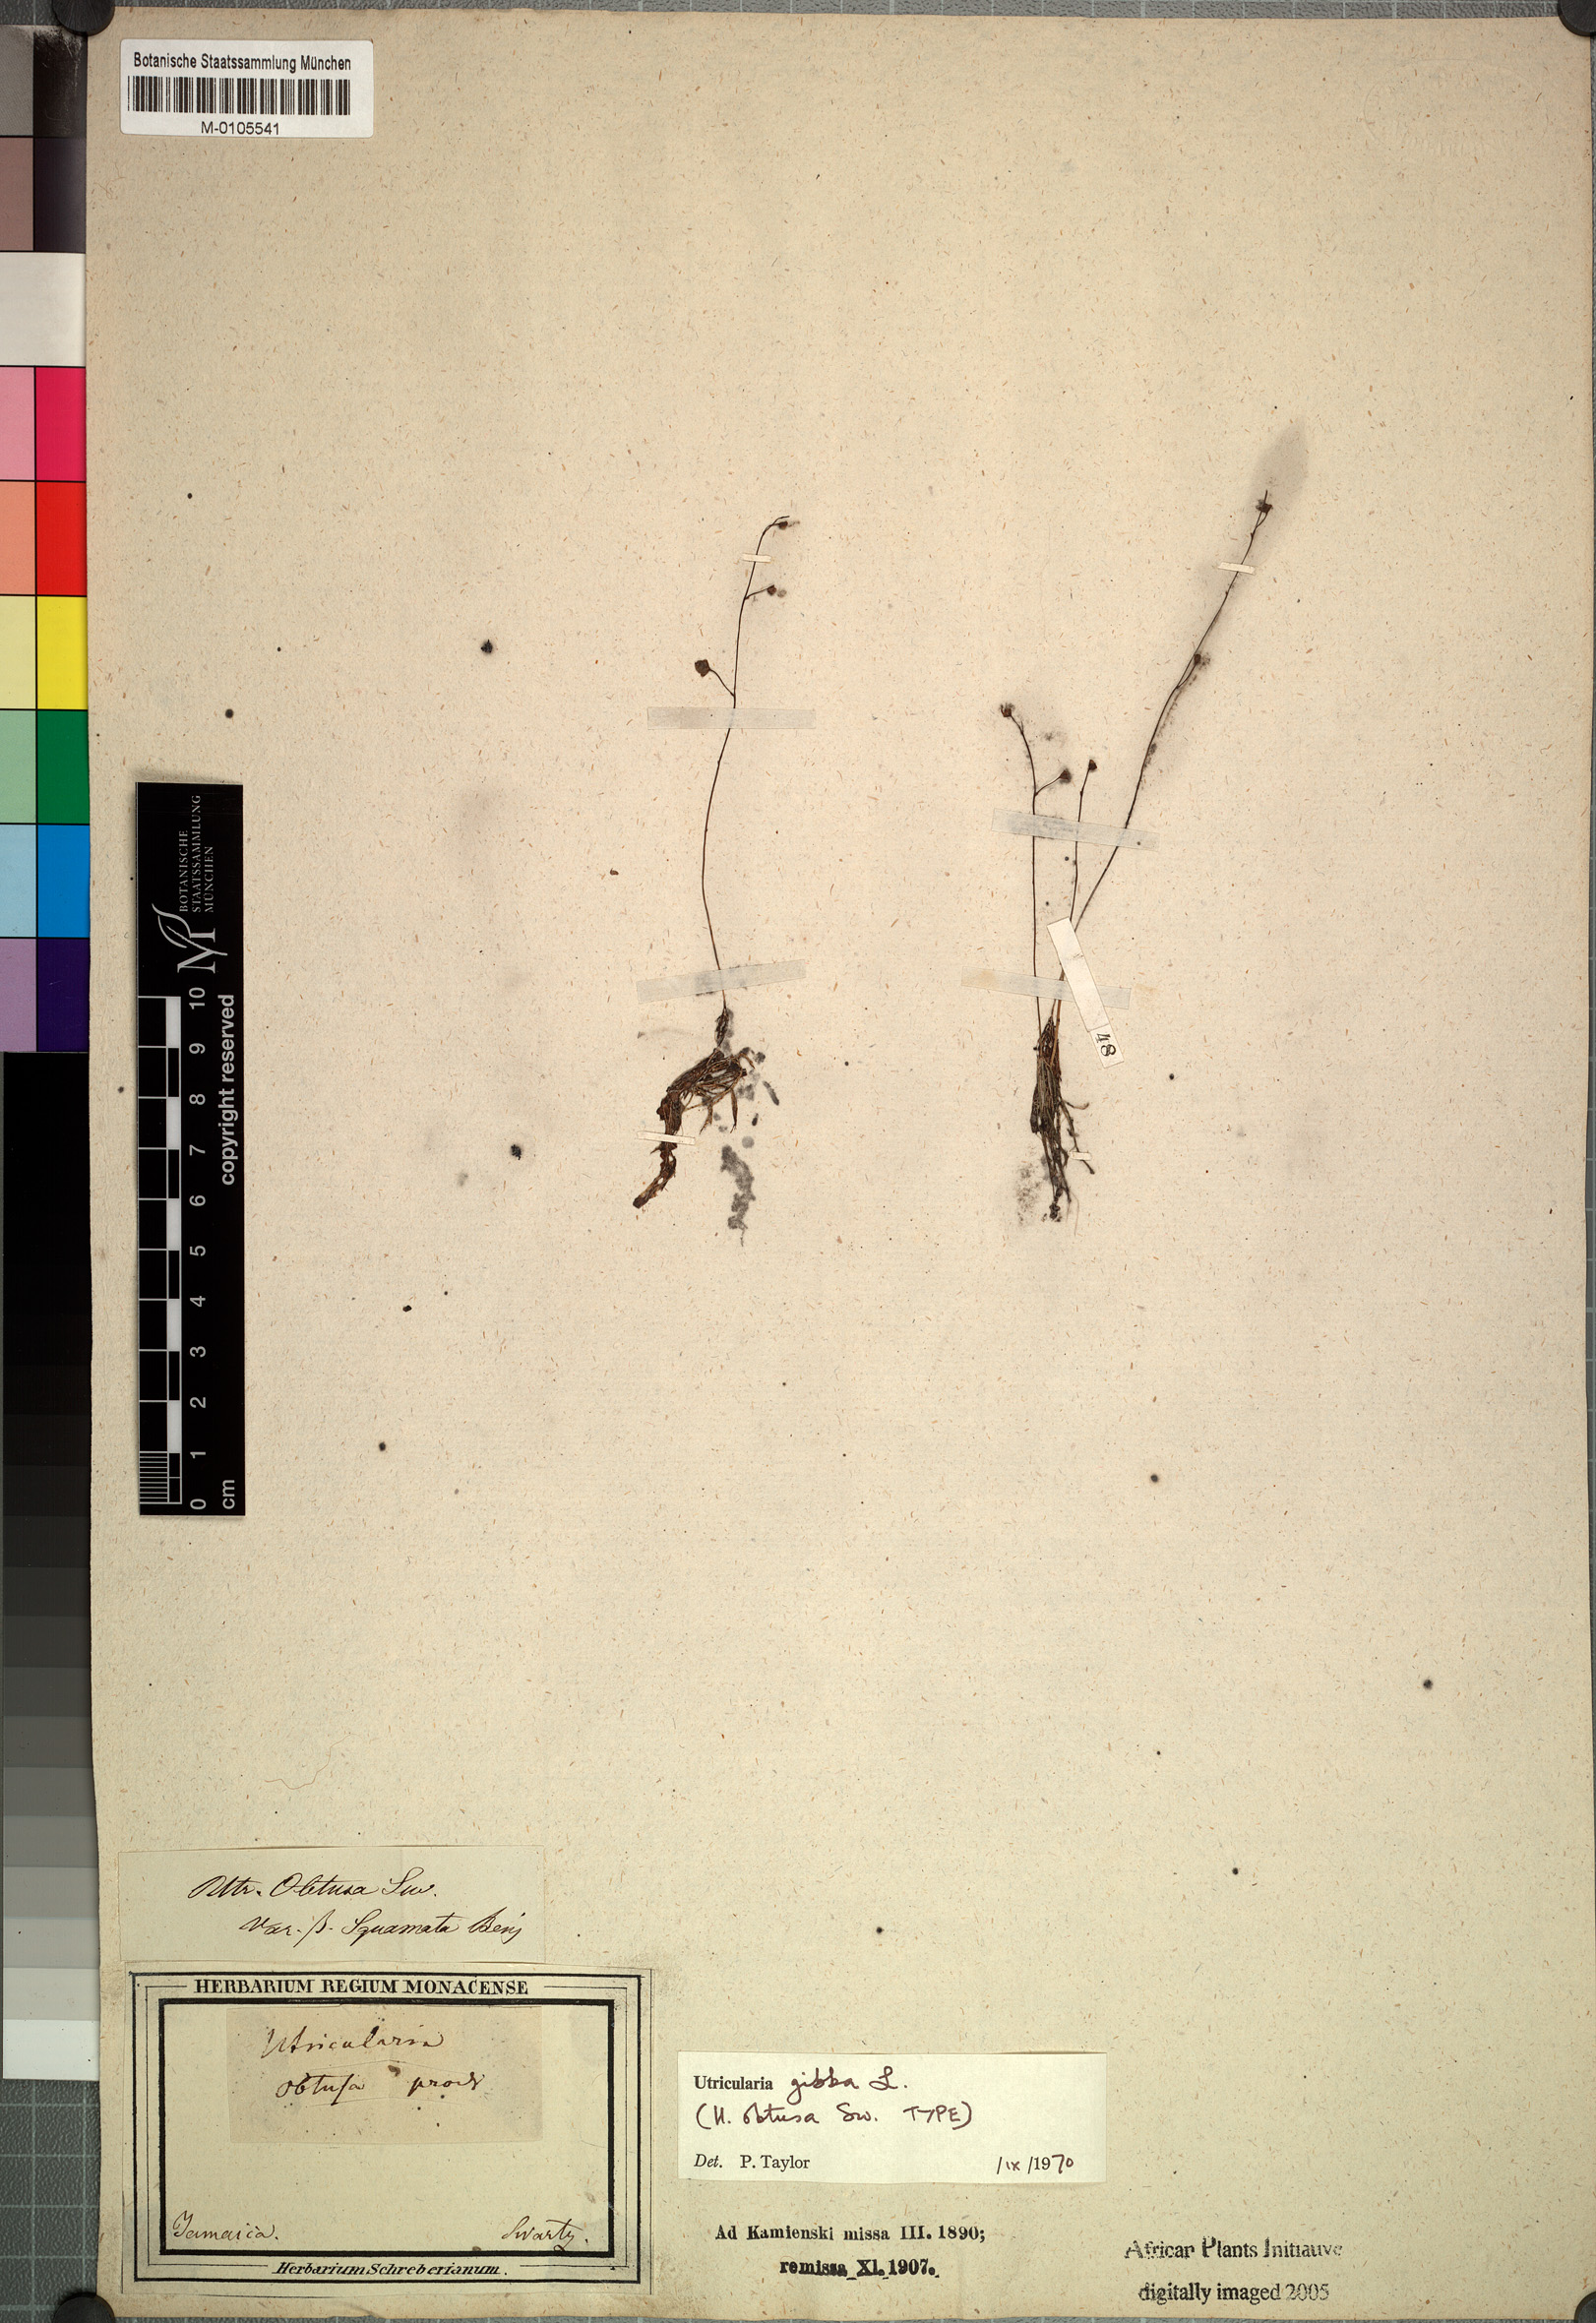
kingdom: Plantae
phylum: Tracheophyta
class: Magnoliopsida
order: Lamiales
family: Lentibulariaceae
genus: Utricularia
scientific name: Utricularia gibba
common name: Humped bladderwort
